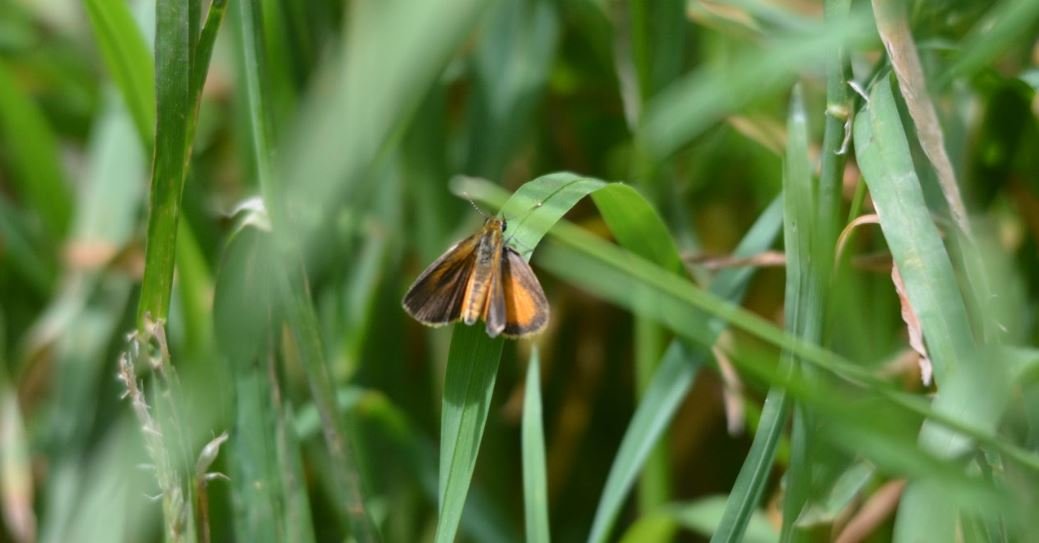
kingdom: Animalia
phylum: Arthropoda
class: Insecta
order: Lepidoptera
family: Hesperiidae
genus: Lon
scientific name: Lon hobomok
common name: Hobomok Skipper
